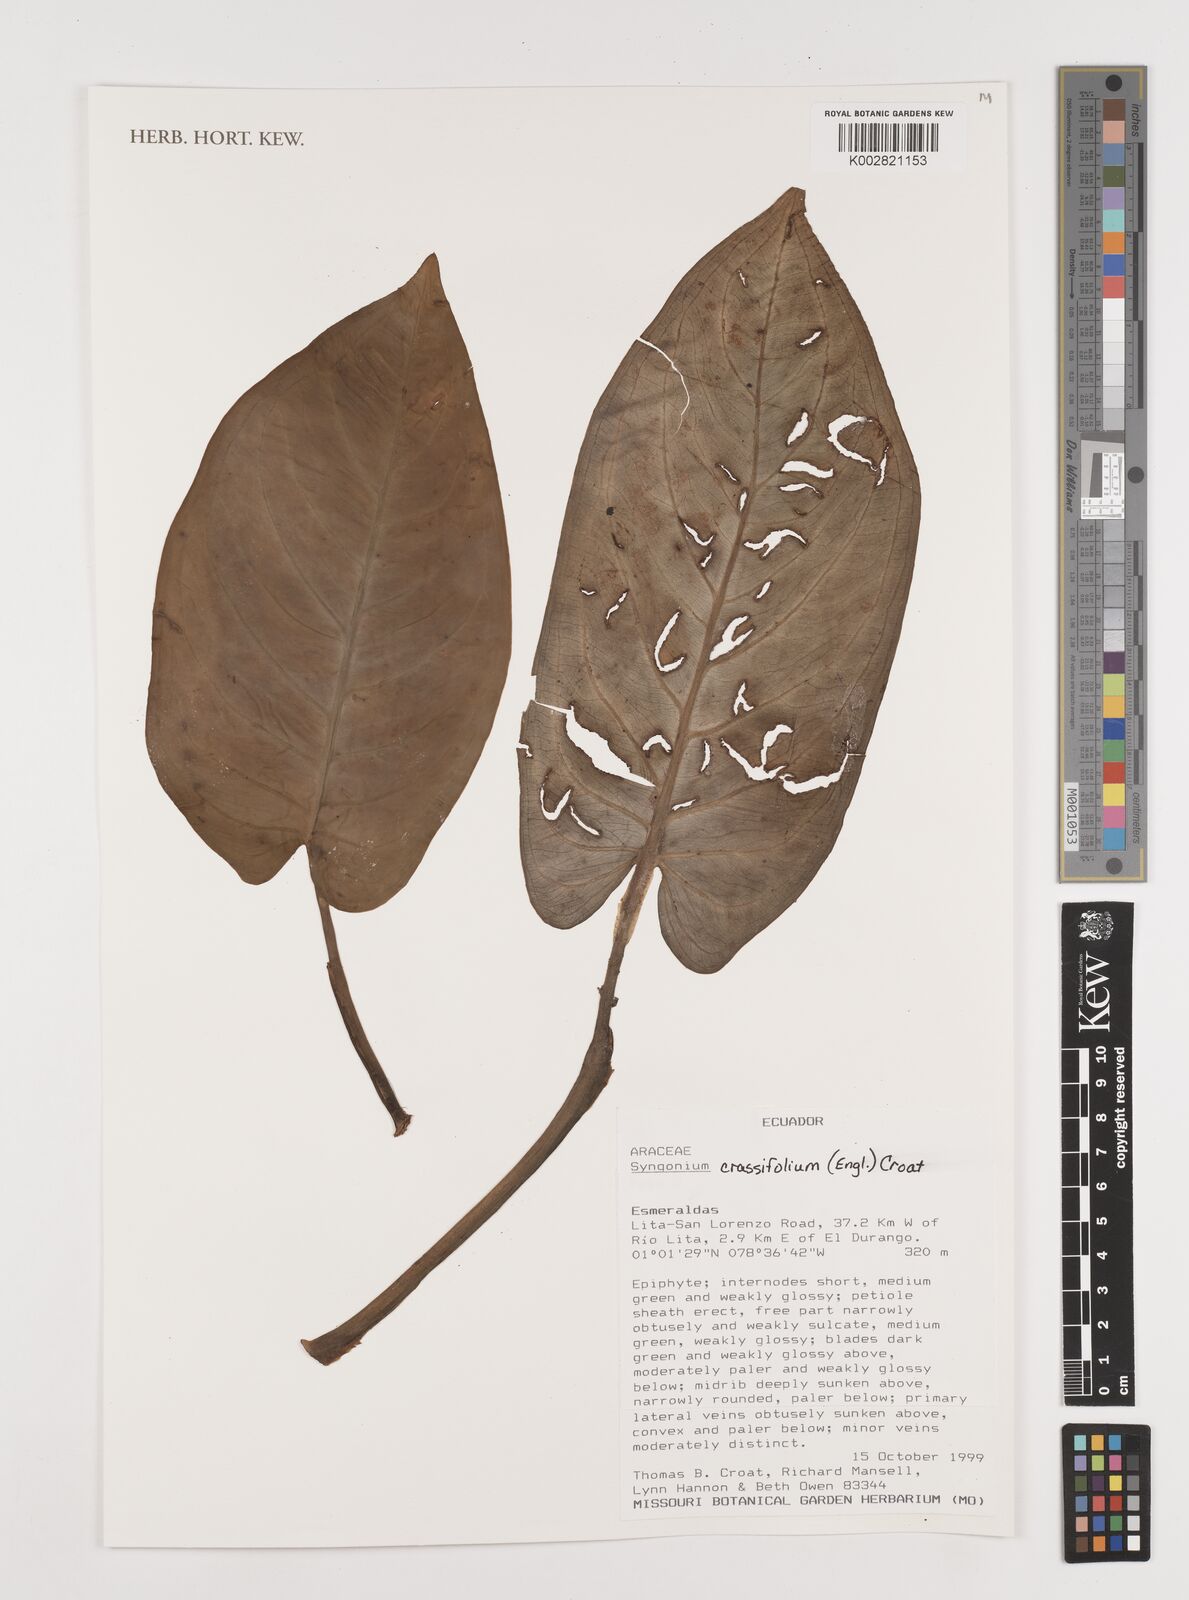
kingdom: Plantae
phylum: Tracheophyta
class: Liliopsida
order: Alismatales
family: Araceae
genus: Syngonium
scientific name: Syngonium crassifolium
